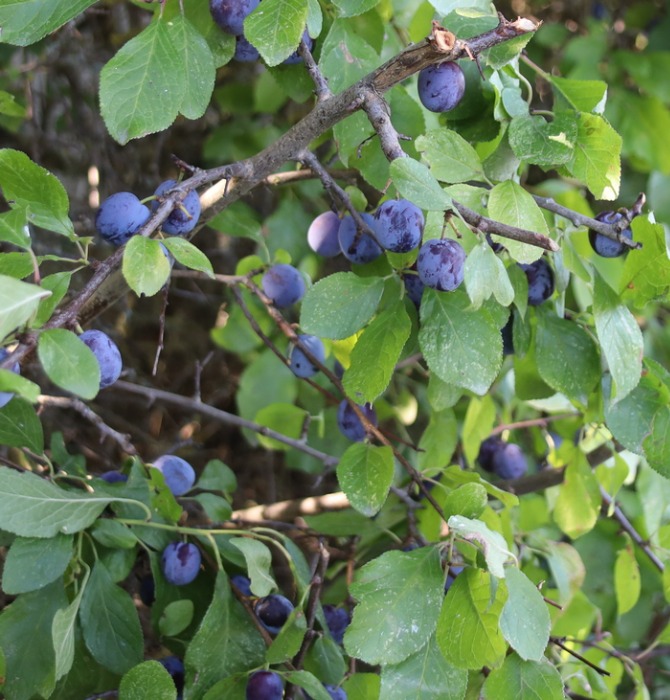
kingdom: Plantae
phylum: Tracheophyta
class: Magnoliopsida
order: Rosales
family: Rosaceae
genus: Prunus
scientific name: Prunus domestica
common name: Kræge
